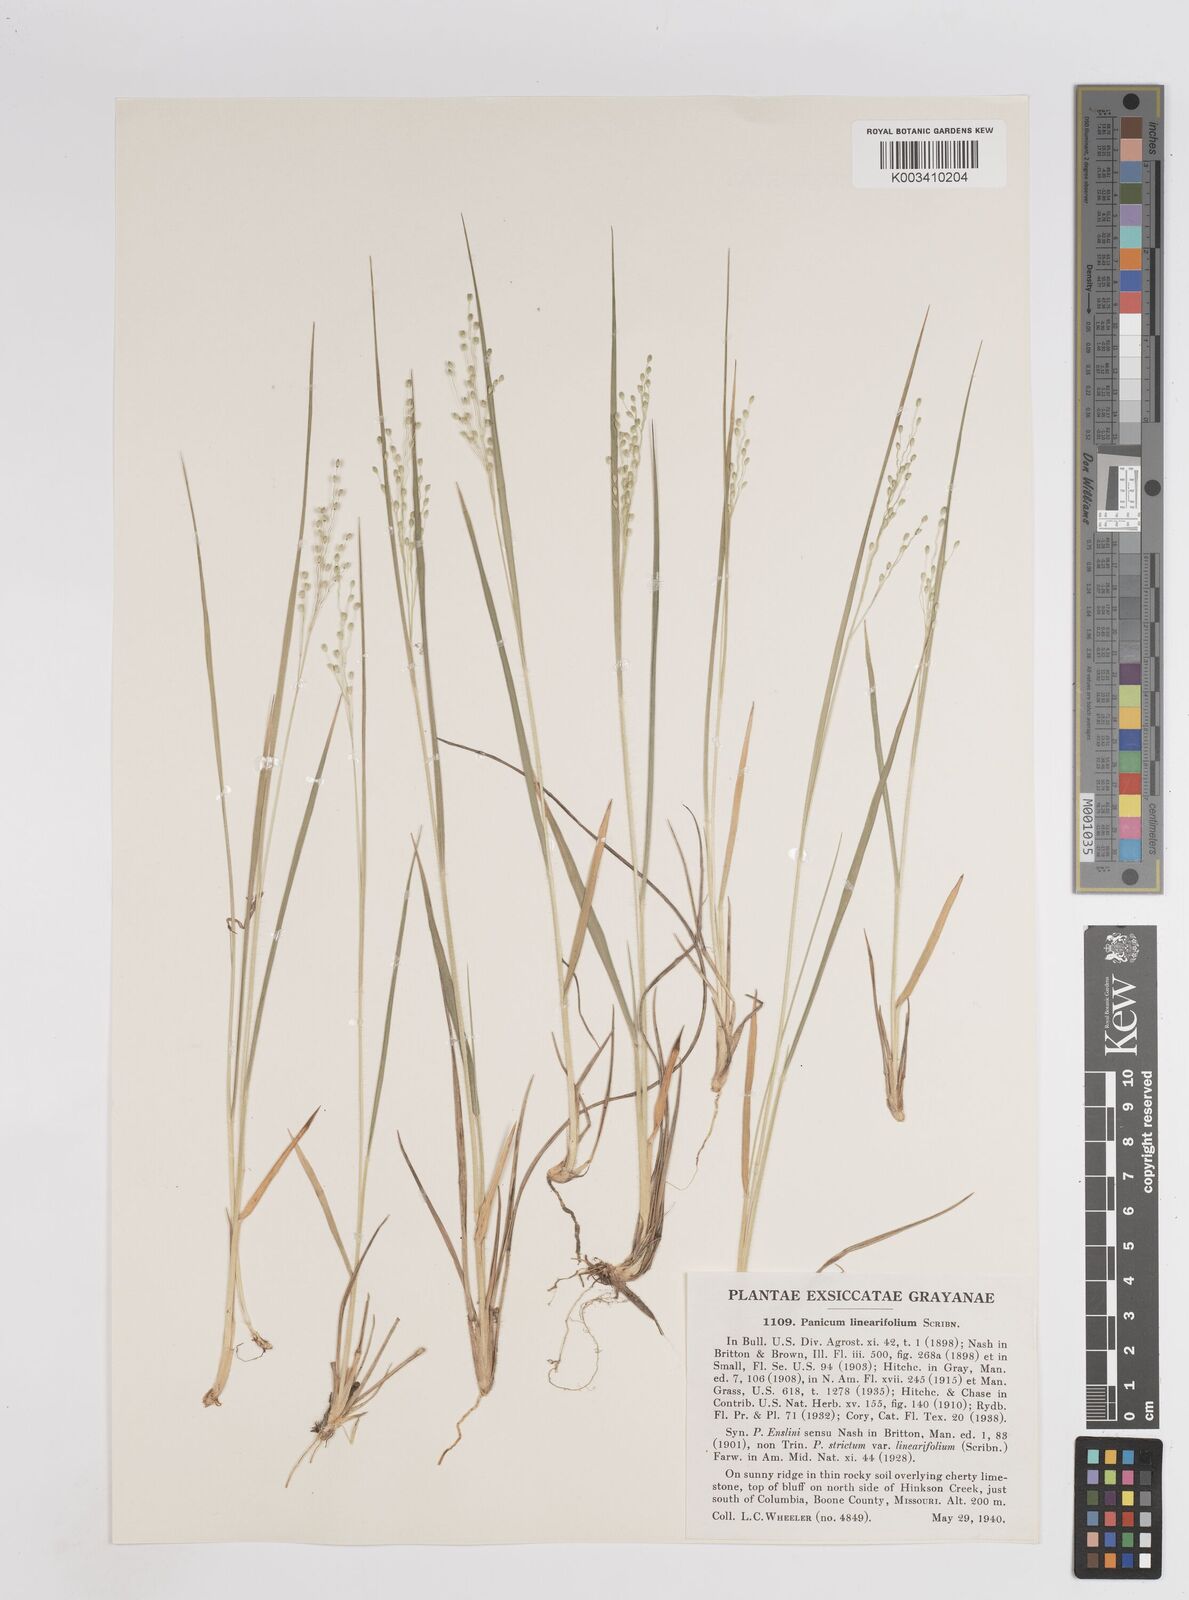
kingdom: Plantae
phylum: Tracheophyta
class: Liliopsida
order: Poales
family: Poaceae
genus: Dichanthelium
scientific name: Dichanthelium linearifolium
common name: Linear-leaved panicgrass
